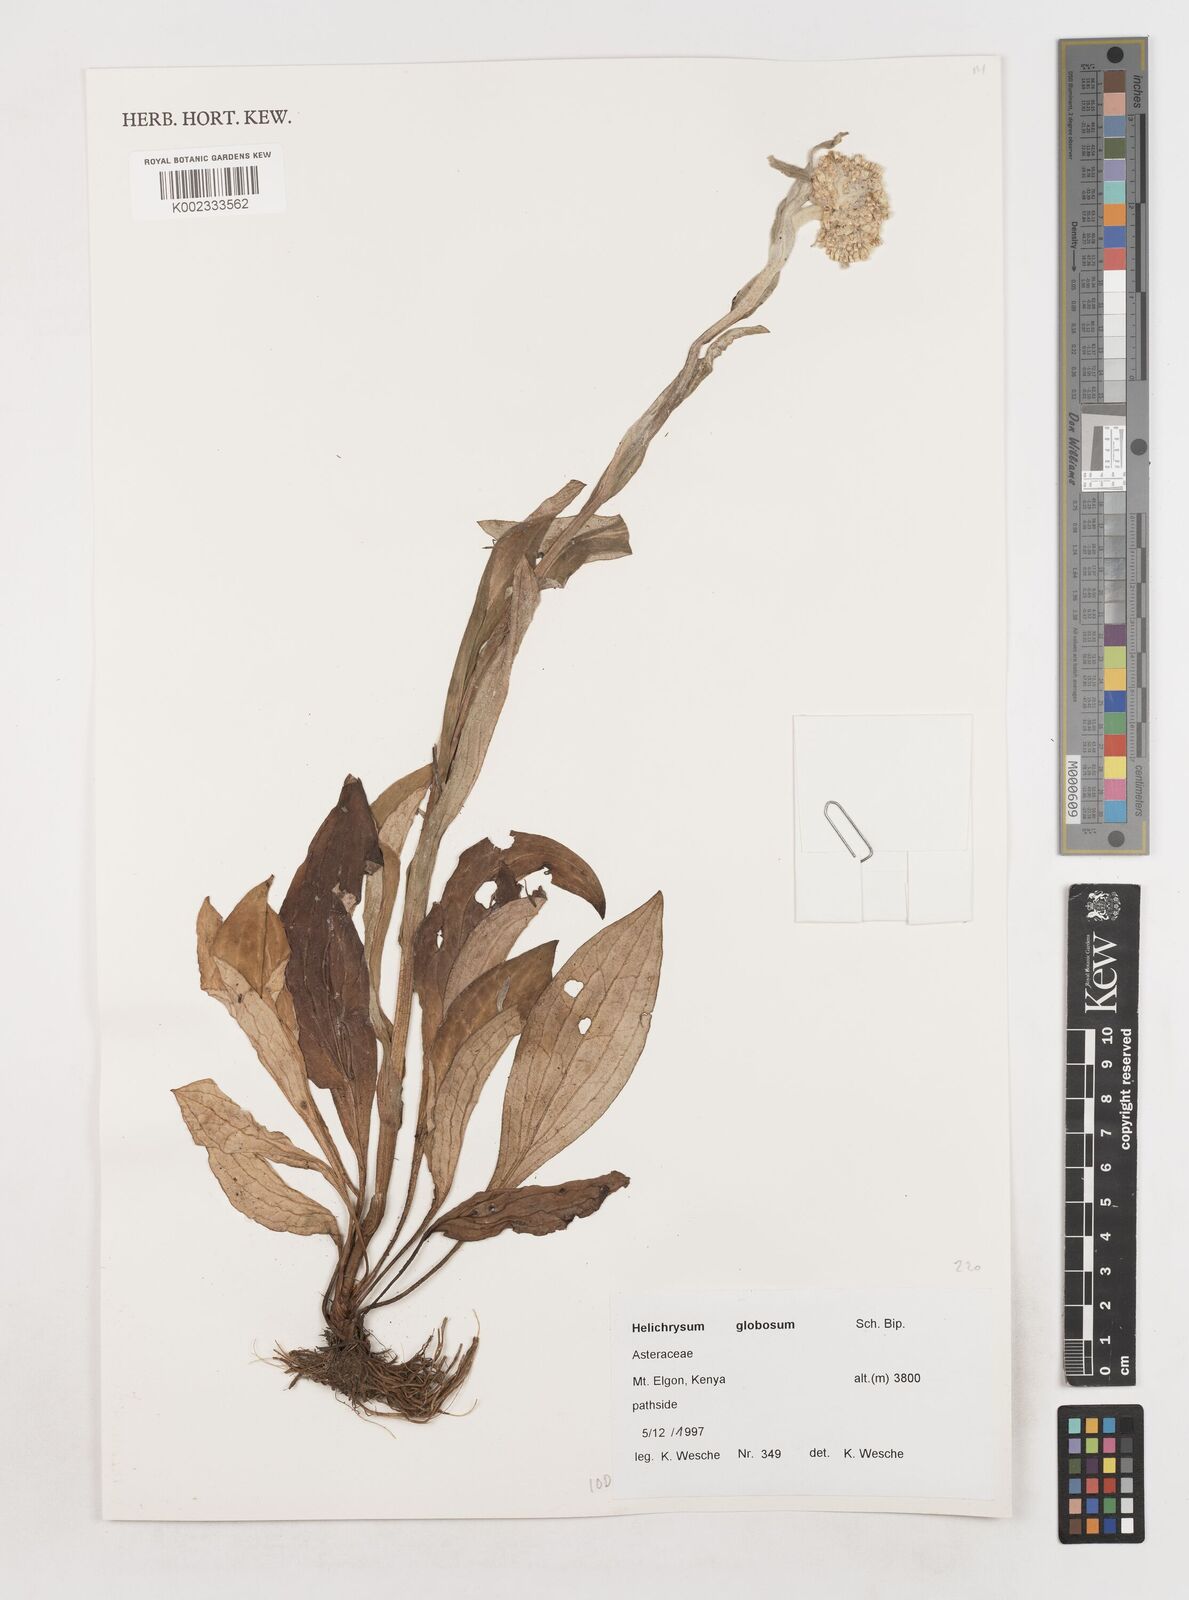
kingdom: Plantae
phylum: Tracheophyta
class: Magnoliopsida
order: Asterales
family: Asteraceae
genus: Helichrysum
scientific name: Helichrysum globosum
